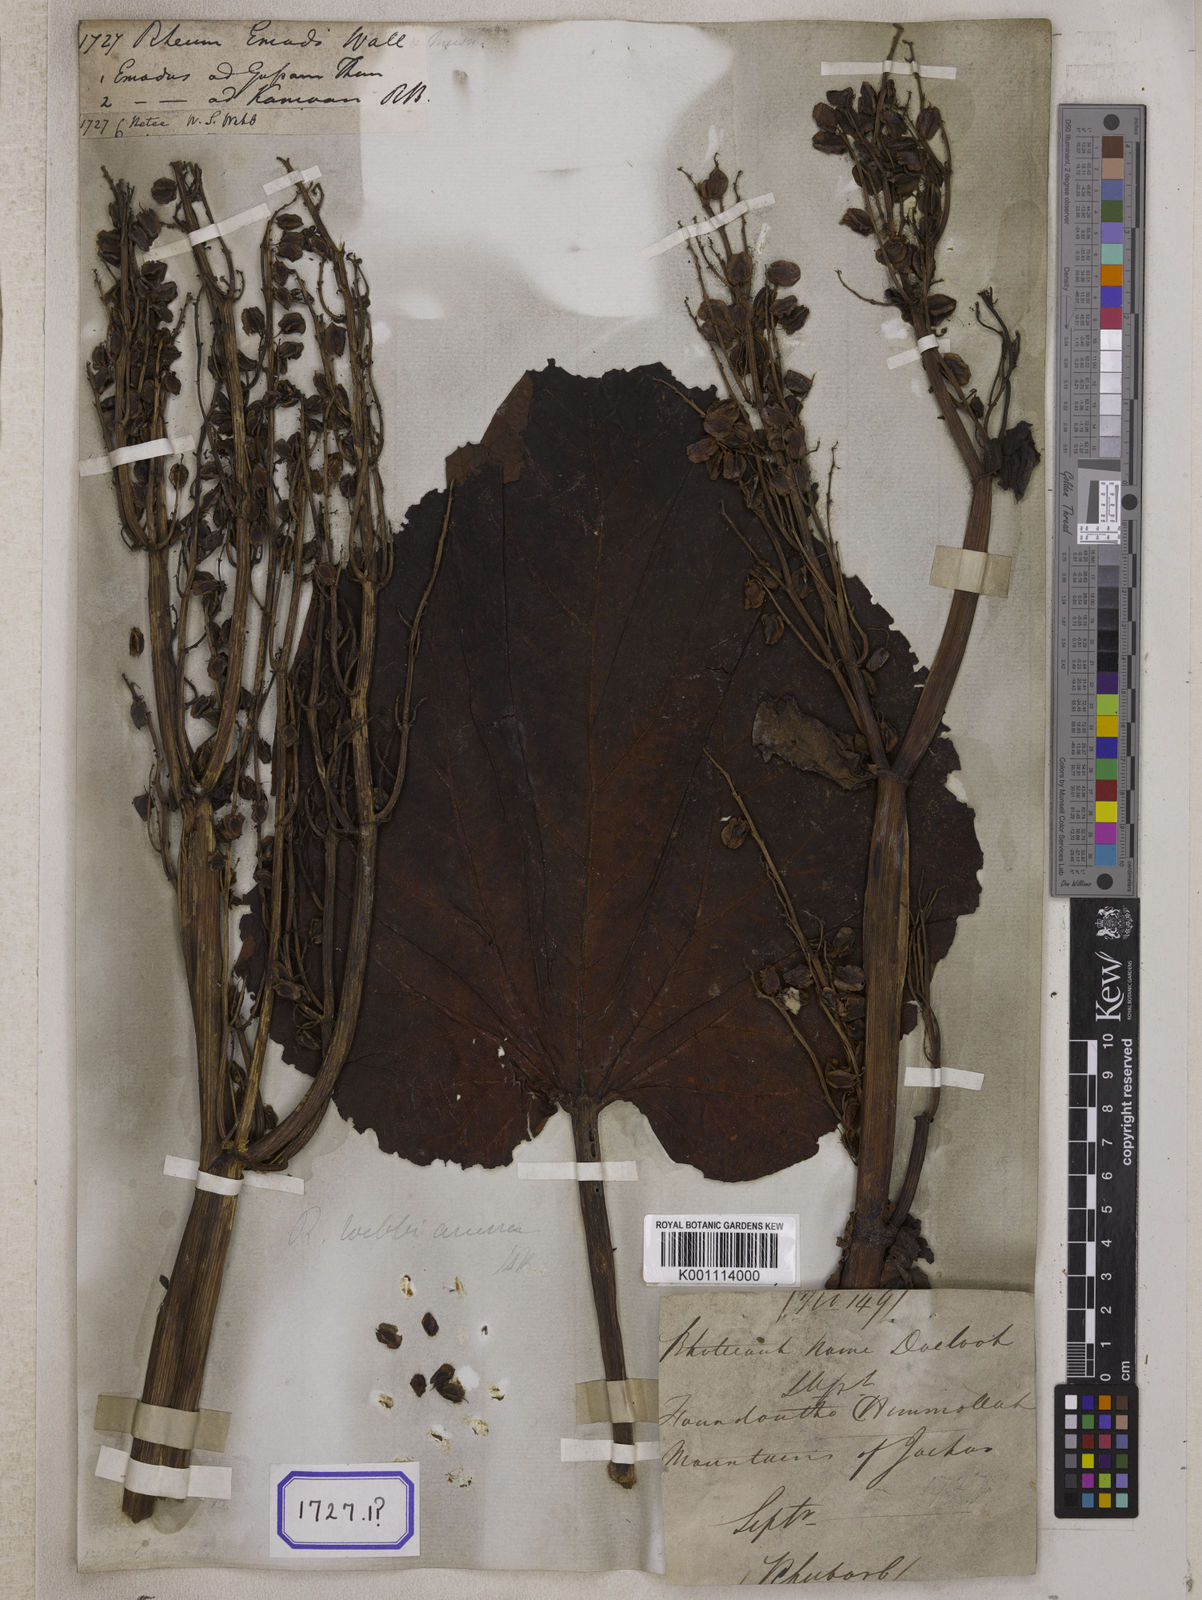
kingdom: Plantae
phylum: Tracheophyta
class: Magnoliopsida
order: Caryophyllales
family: Polygonaceae
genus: Rheum
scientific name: Rheum
